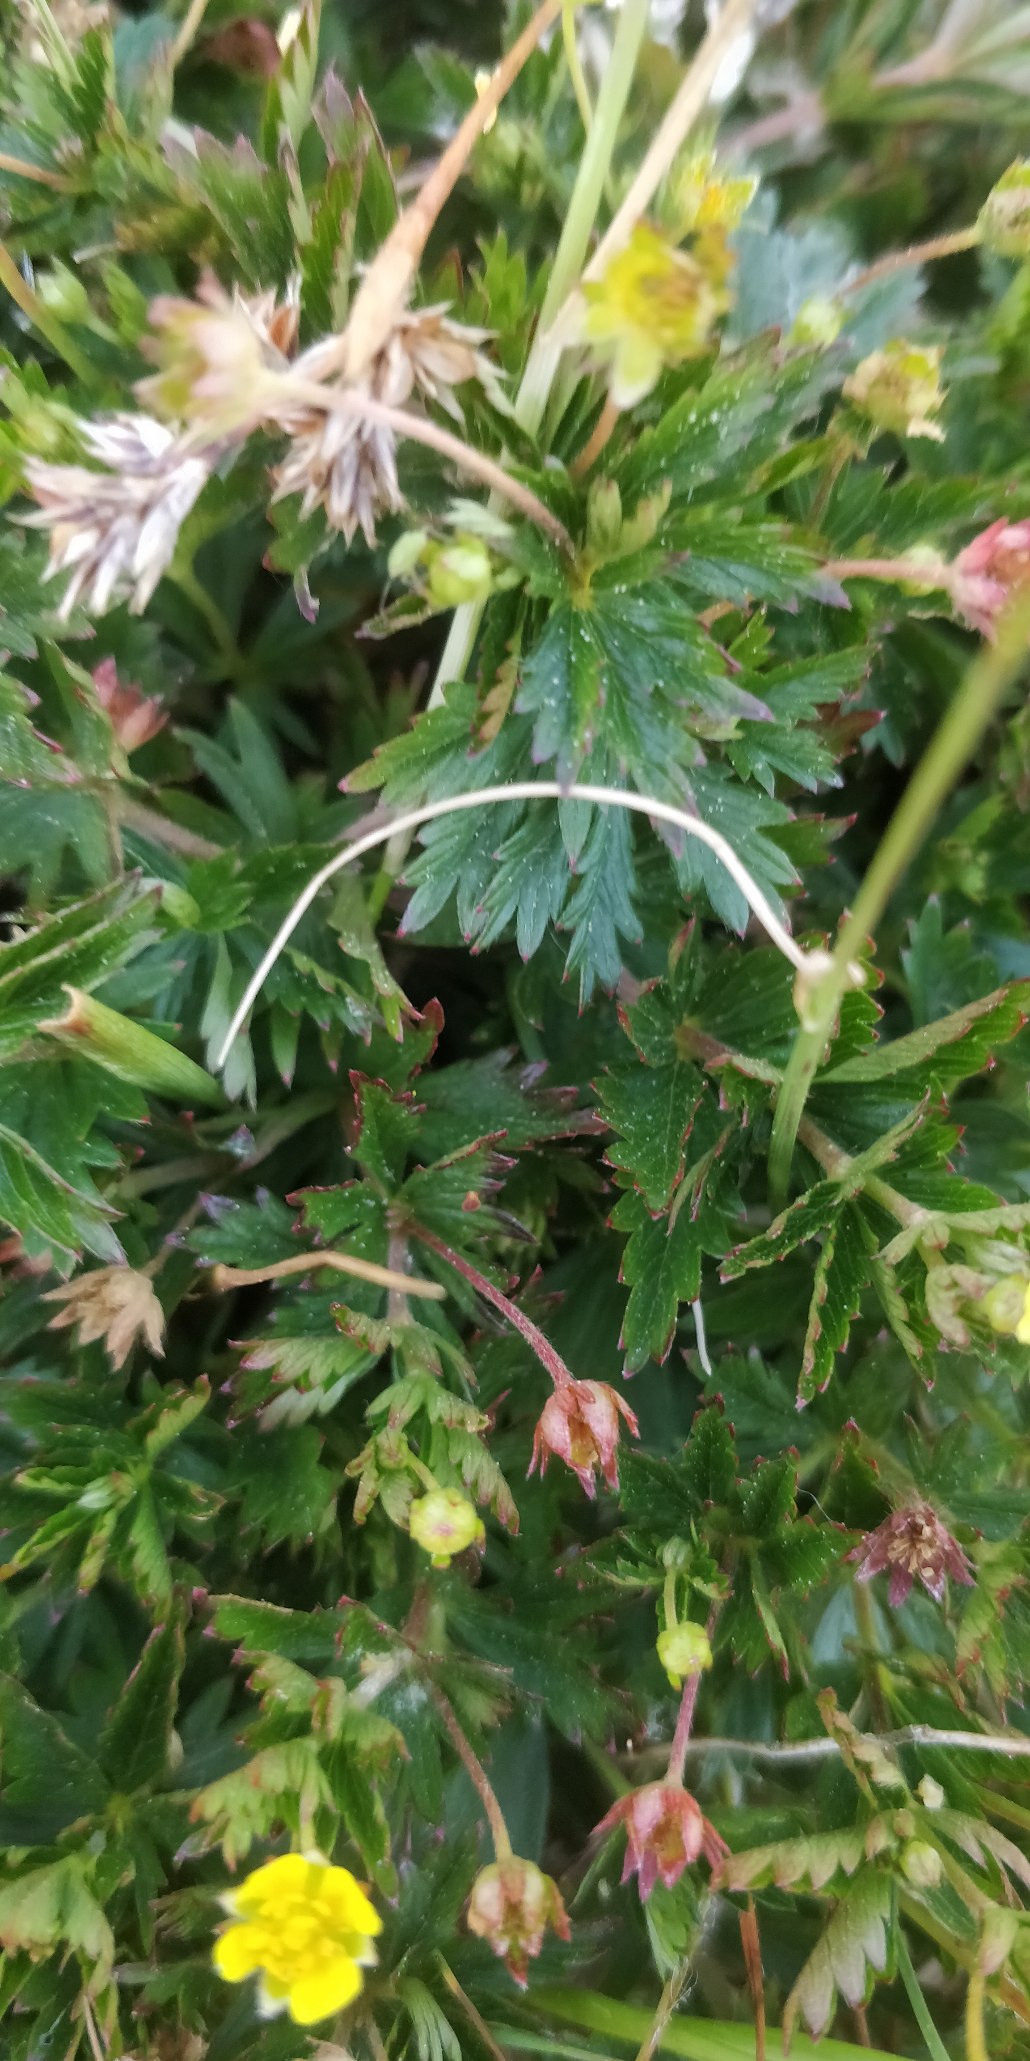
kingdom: Plantae
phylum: Tracheophyta
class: Magnoliopsida
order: Rosales
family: Rosaceae
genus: Potentilla
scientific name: Potentilla erecta
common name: Tormentil
